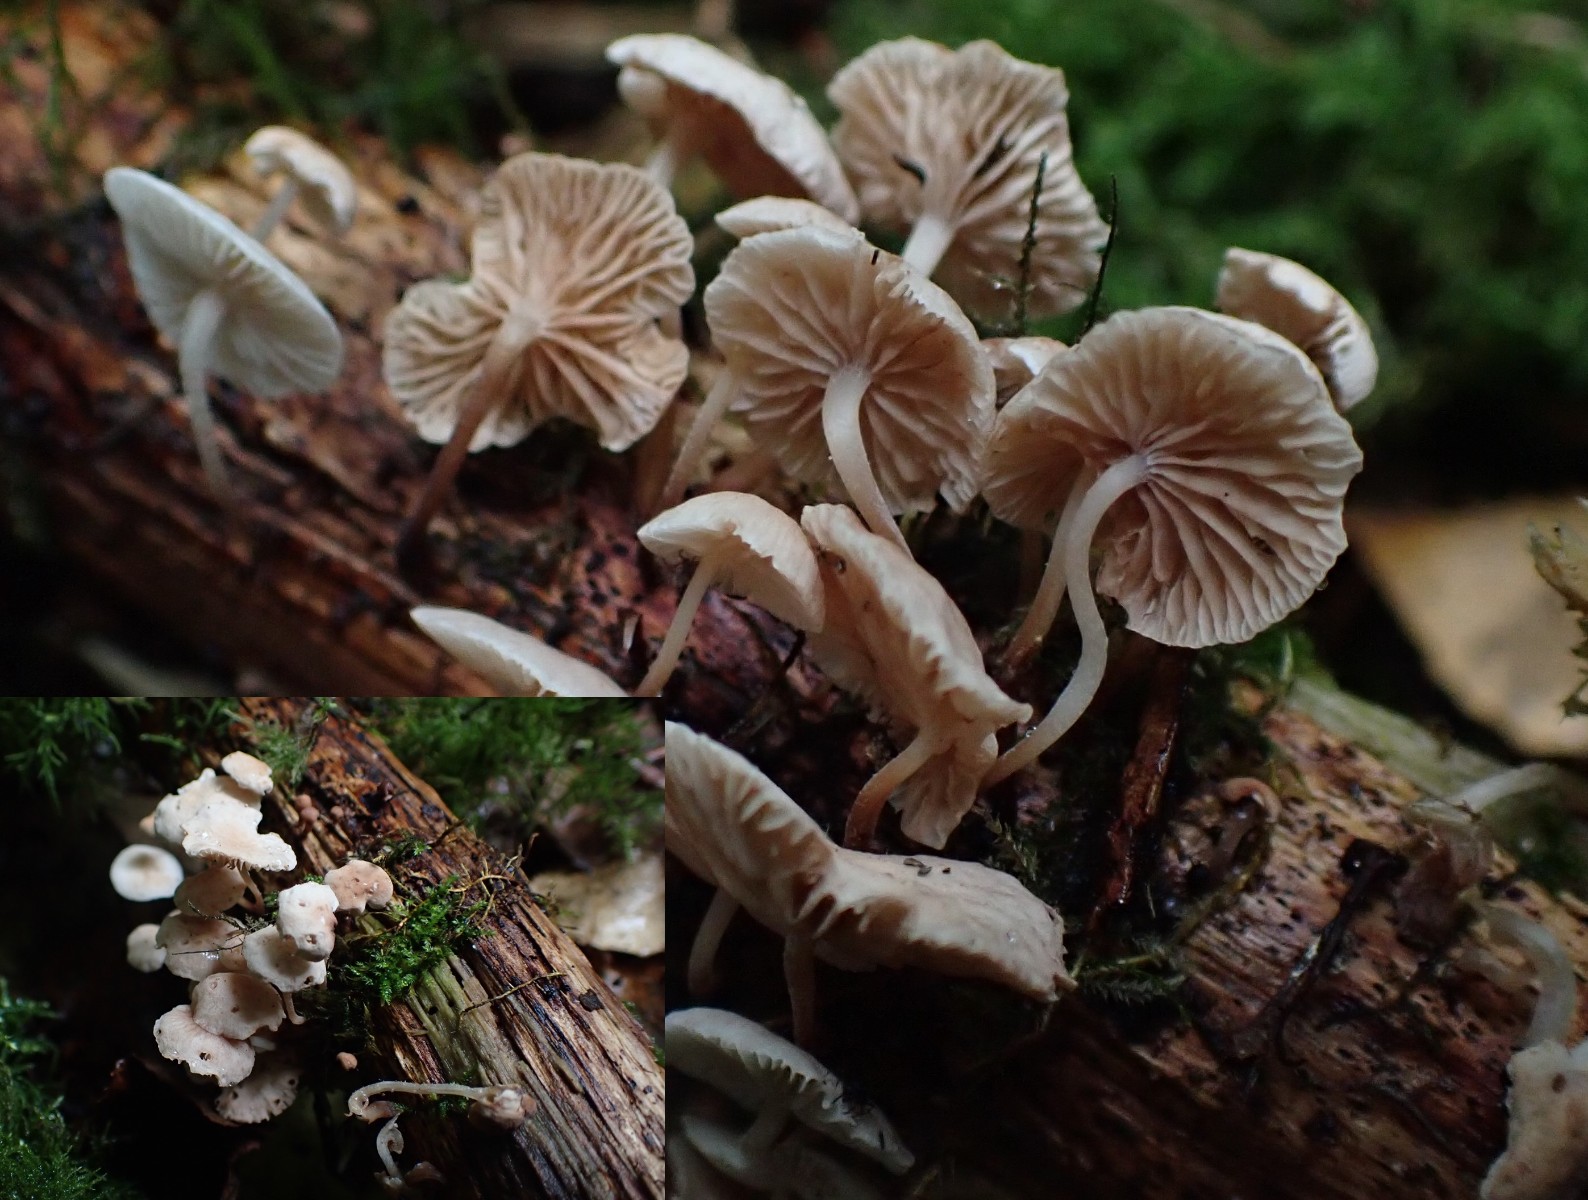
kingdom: Fungi
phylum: Basidiomycota
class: Agaricomycetes
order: Agaricales
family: Omphalotaceae
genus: Collybiopsis
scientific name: Collybiopsis ramealis
